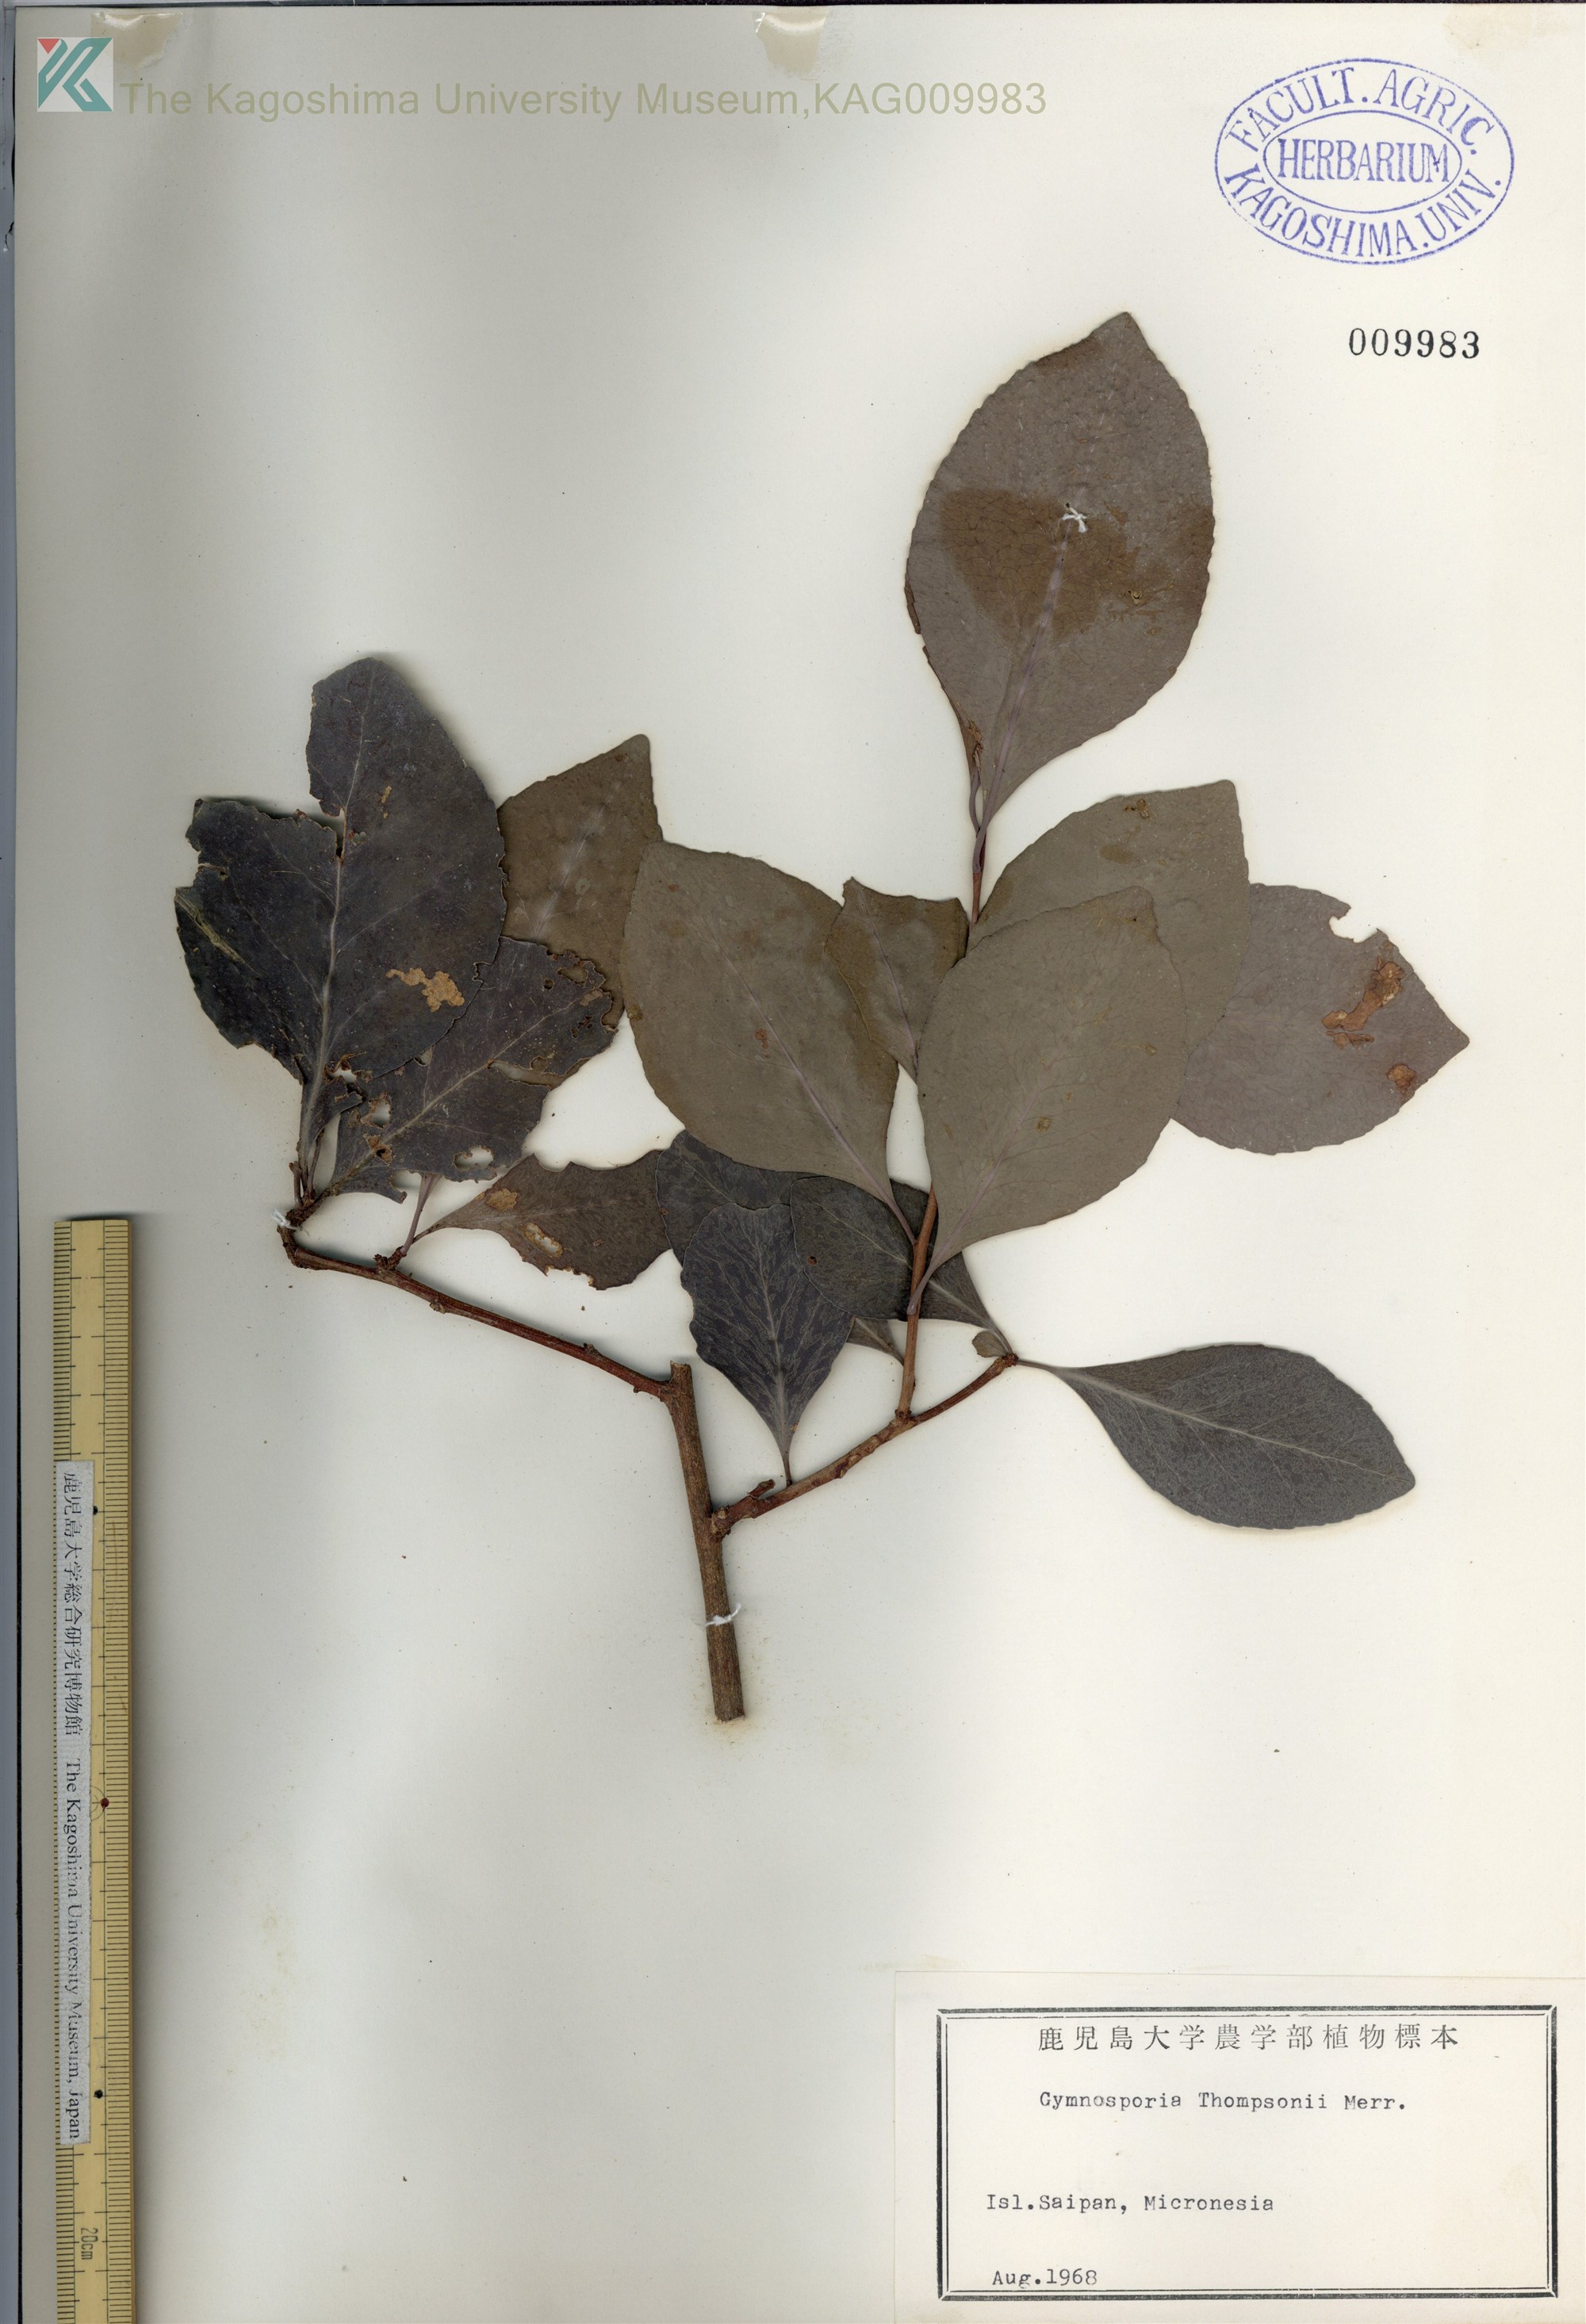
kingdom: Plantae
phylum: Tracheophyta
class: Magnoliopsida
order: Celastrales
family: Celastraceae
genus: Gymnosporia
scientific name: Gymnosporia thompsonii
